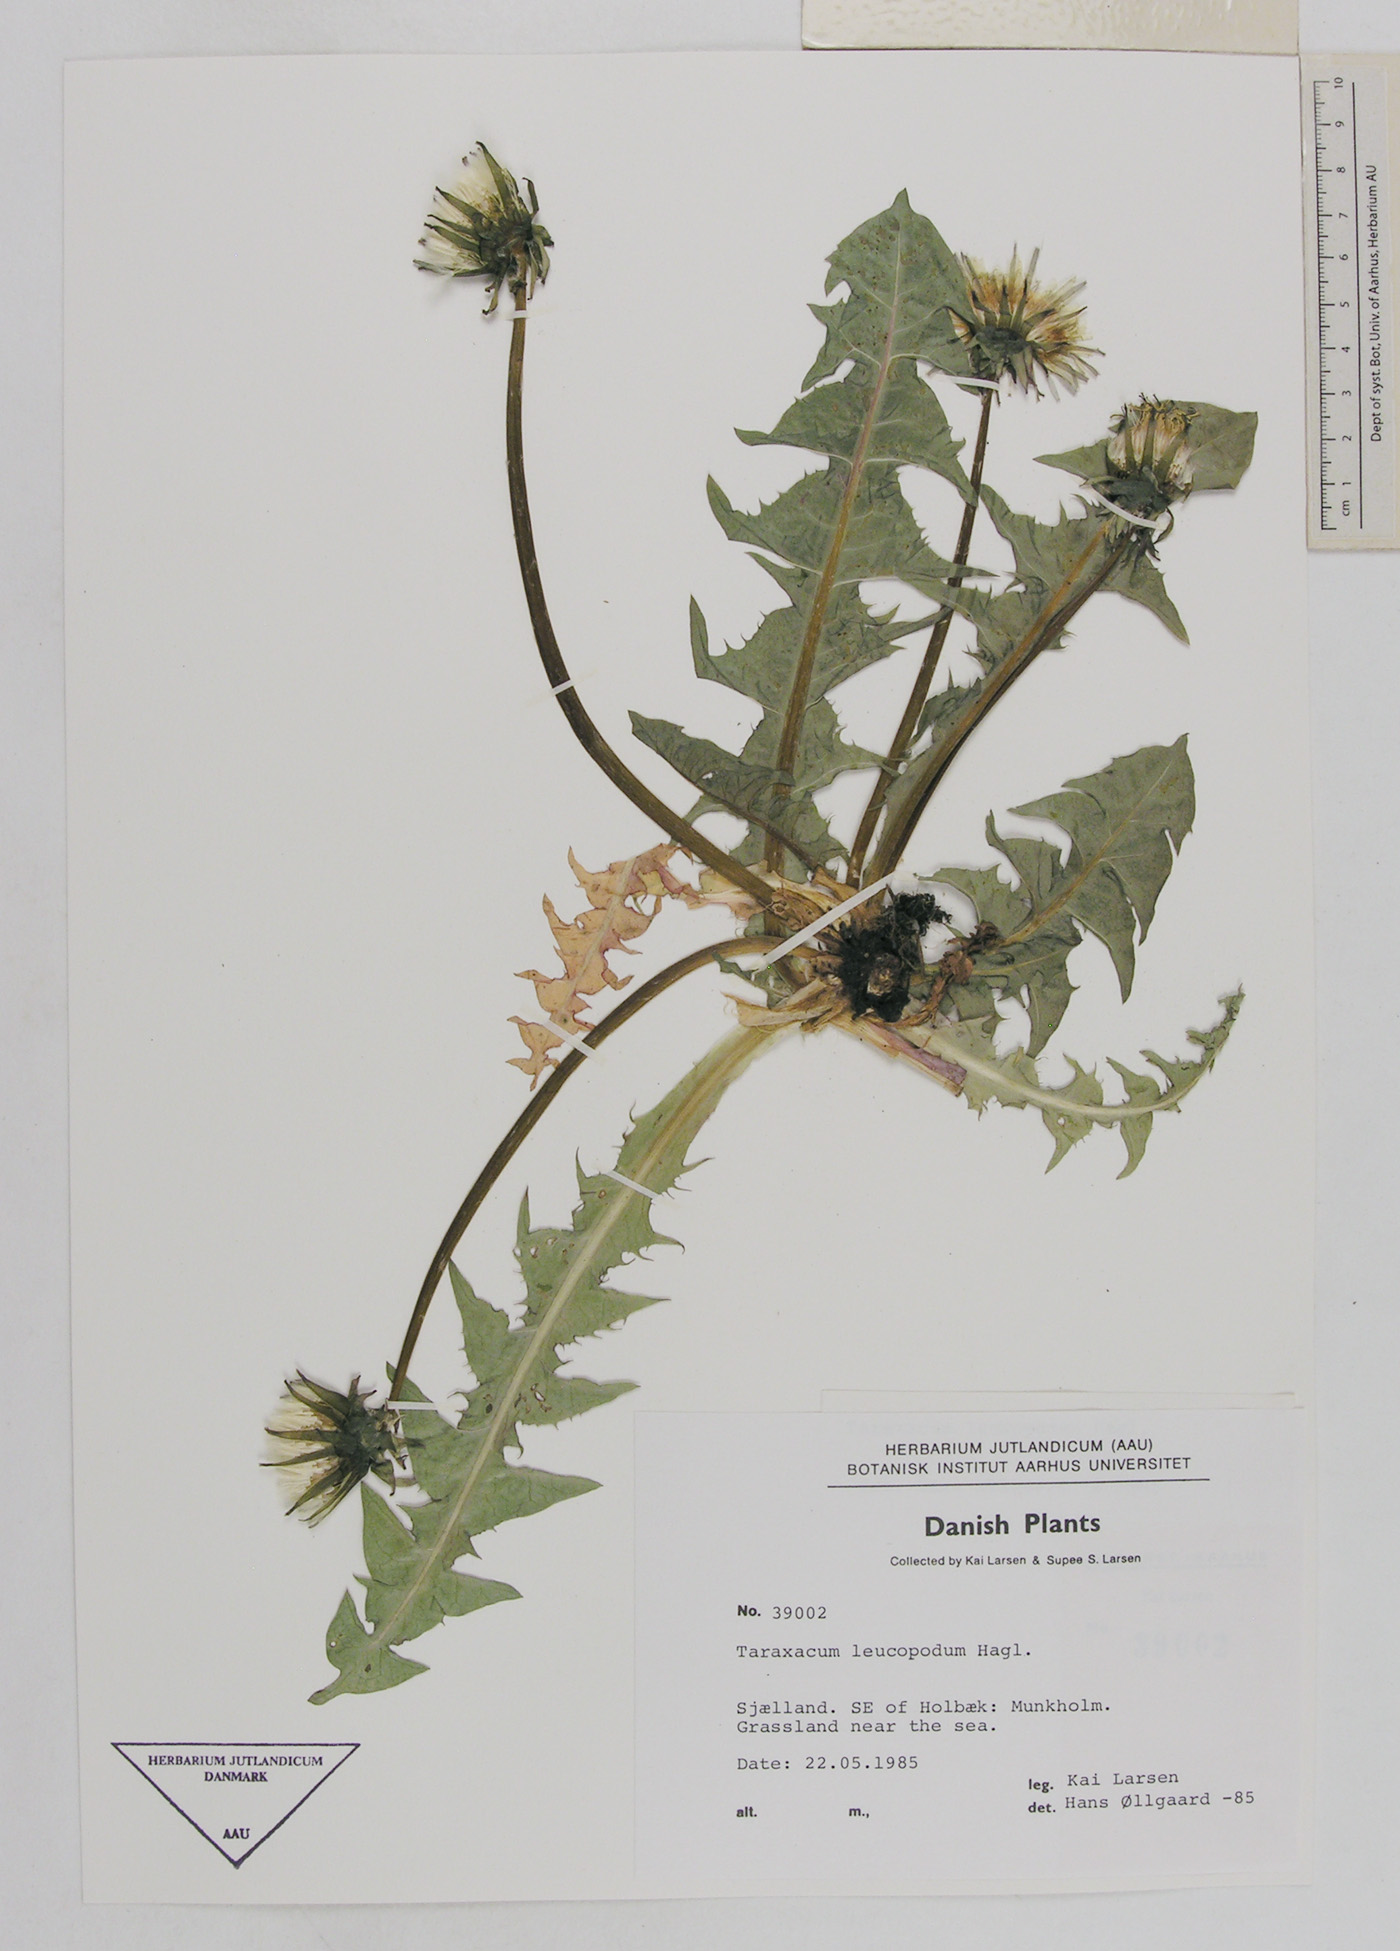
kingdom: Plantae
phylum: Tracheophyta
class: Magnoliopsida
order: Asterales
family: Asteraceae
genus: Taraxacum
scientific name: Taraxacum leucopodum
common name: White-stalked dandelion
